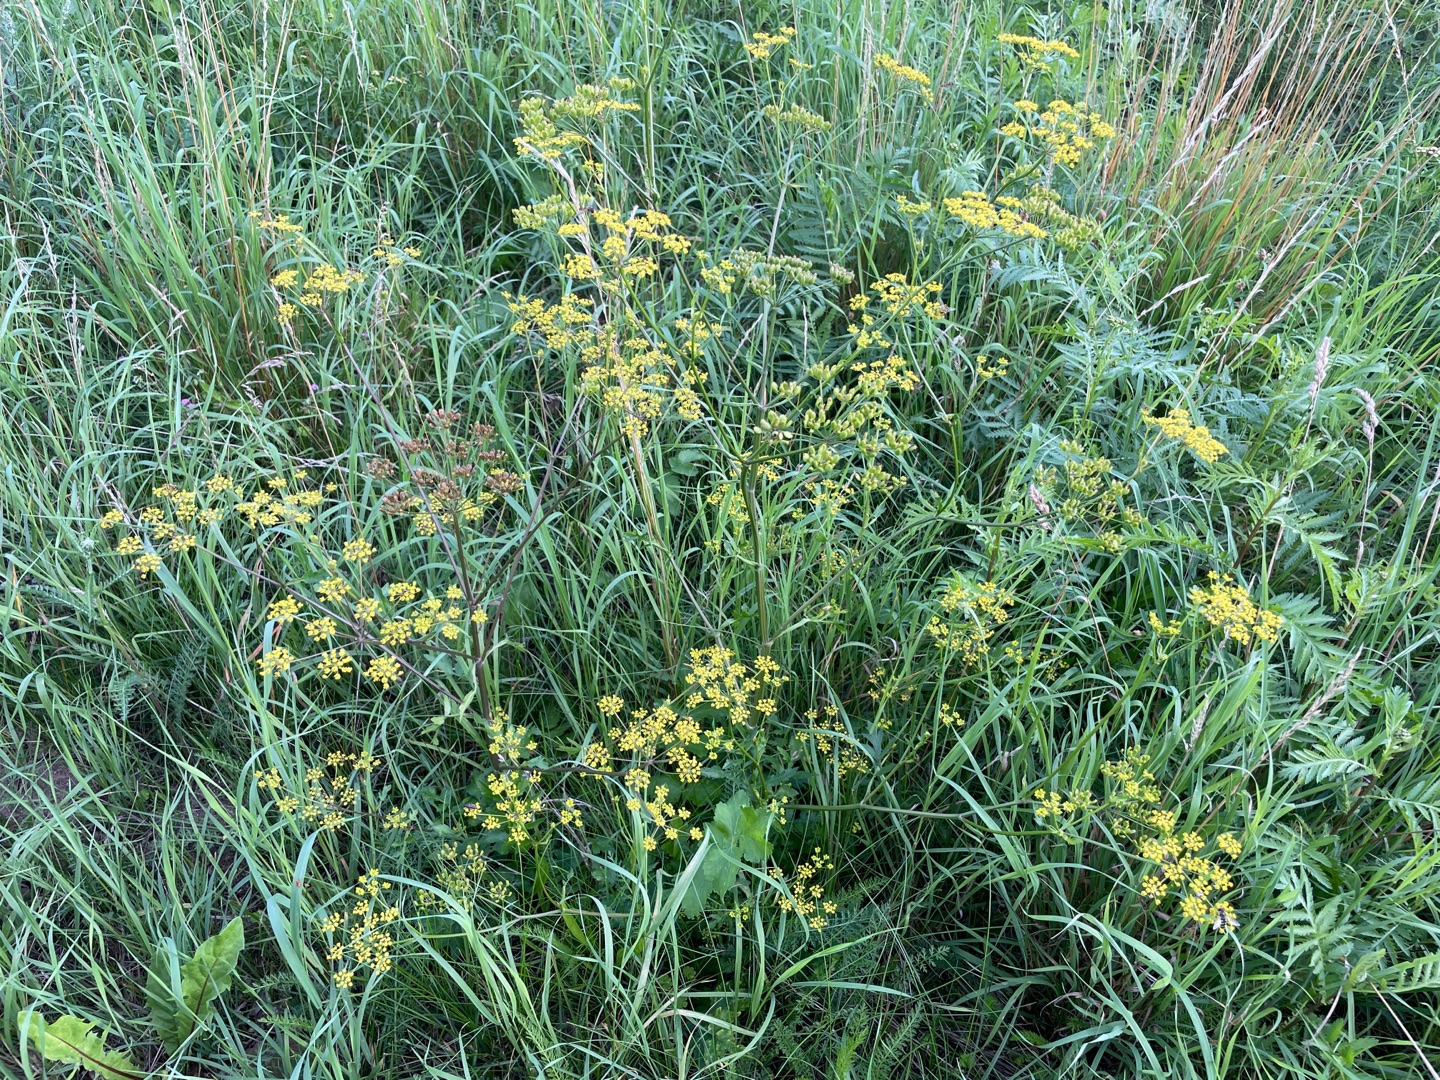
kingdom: Plantae
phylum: Tracheophyta
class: Magnoliopsida
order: Apiales
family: Apiaceae
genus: Pastinaca
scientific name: Pastinaca sativa
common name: Pastinak
